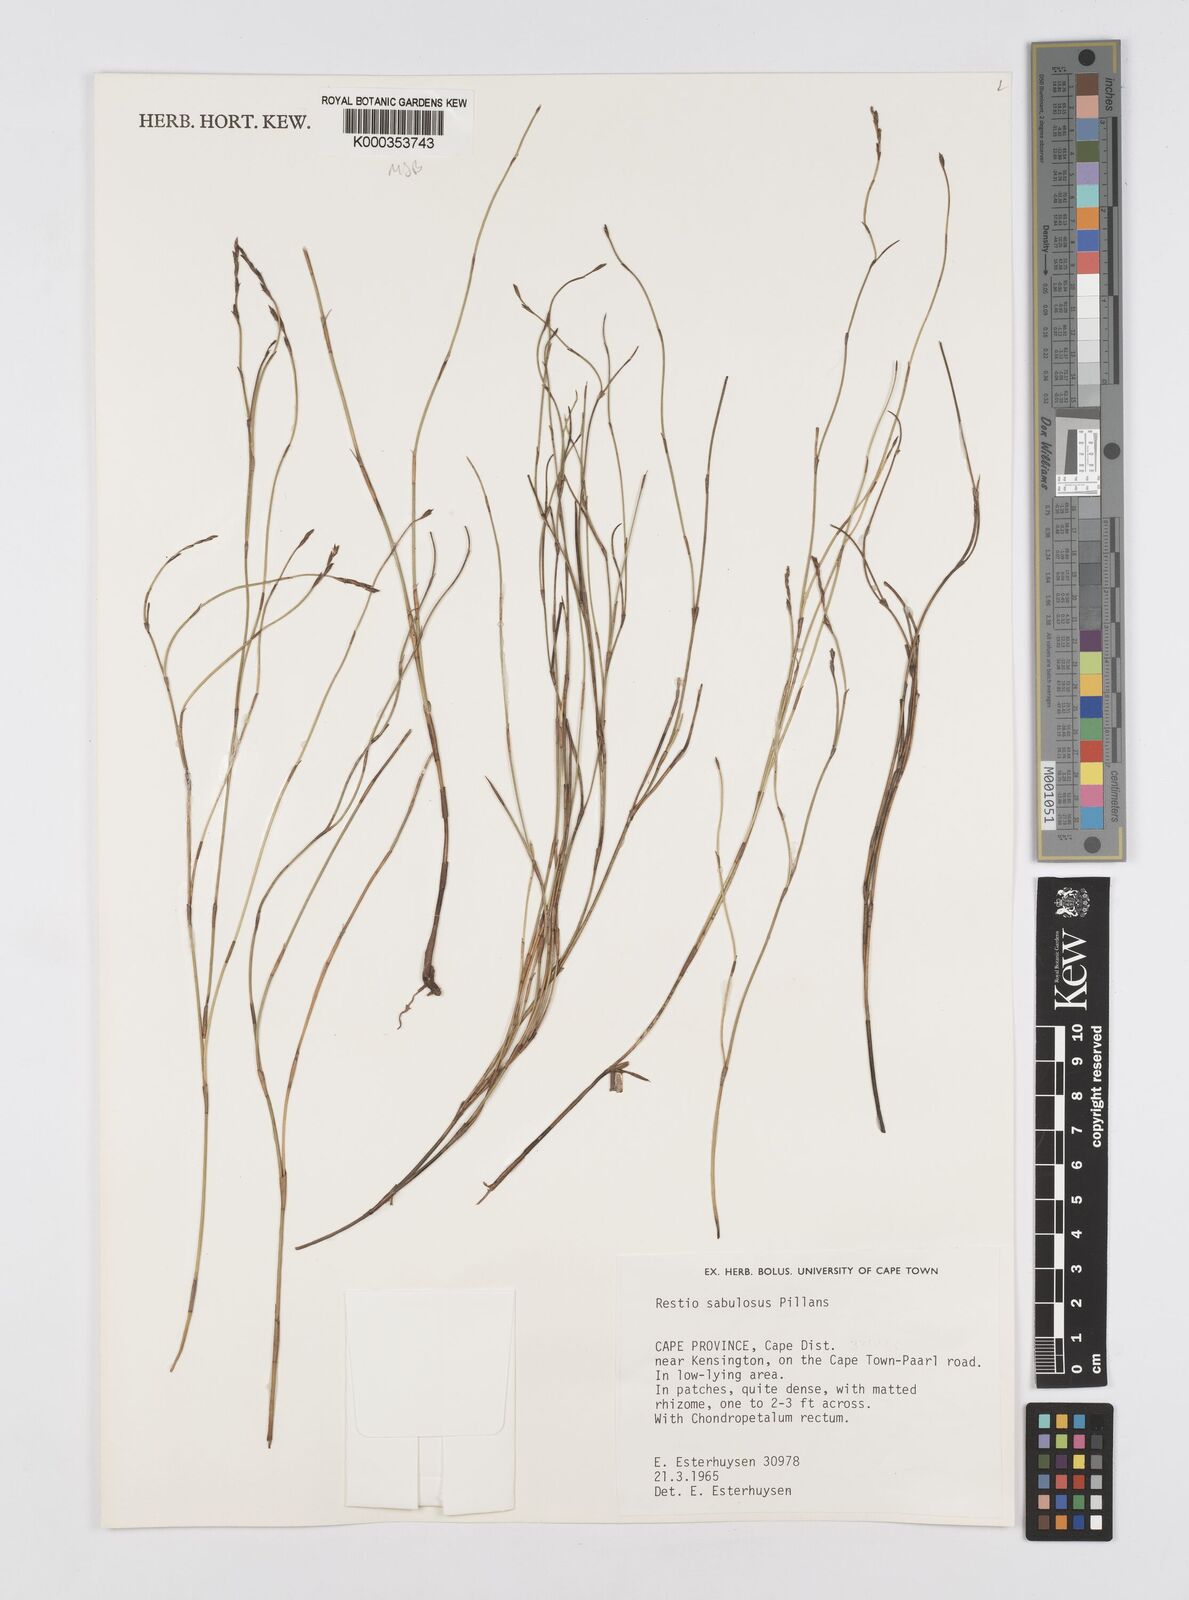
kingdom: Plantae
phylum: Tracheophyta
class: Liliopsida
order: Poales
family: Restionaceae
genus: Restio
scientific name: Restio sabulosus
